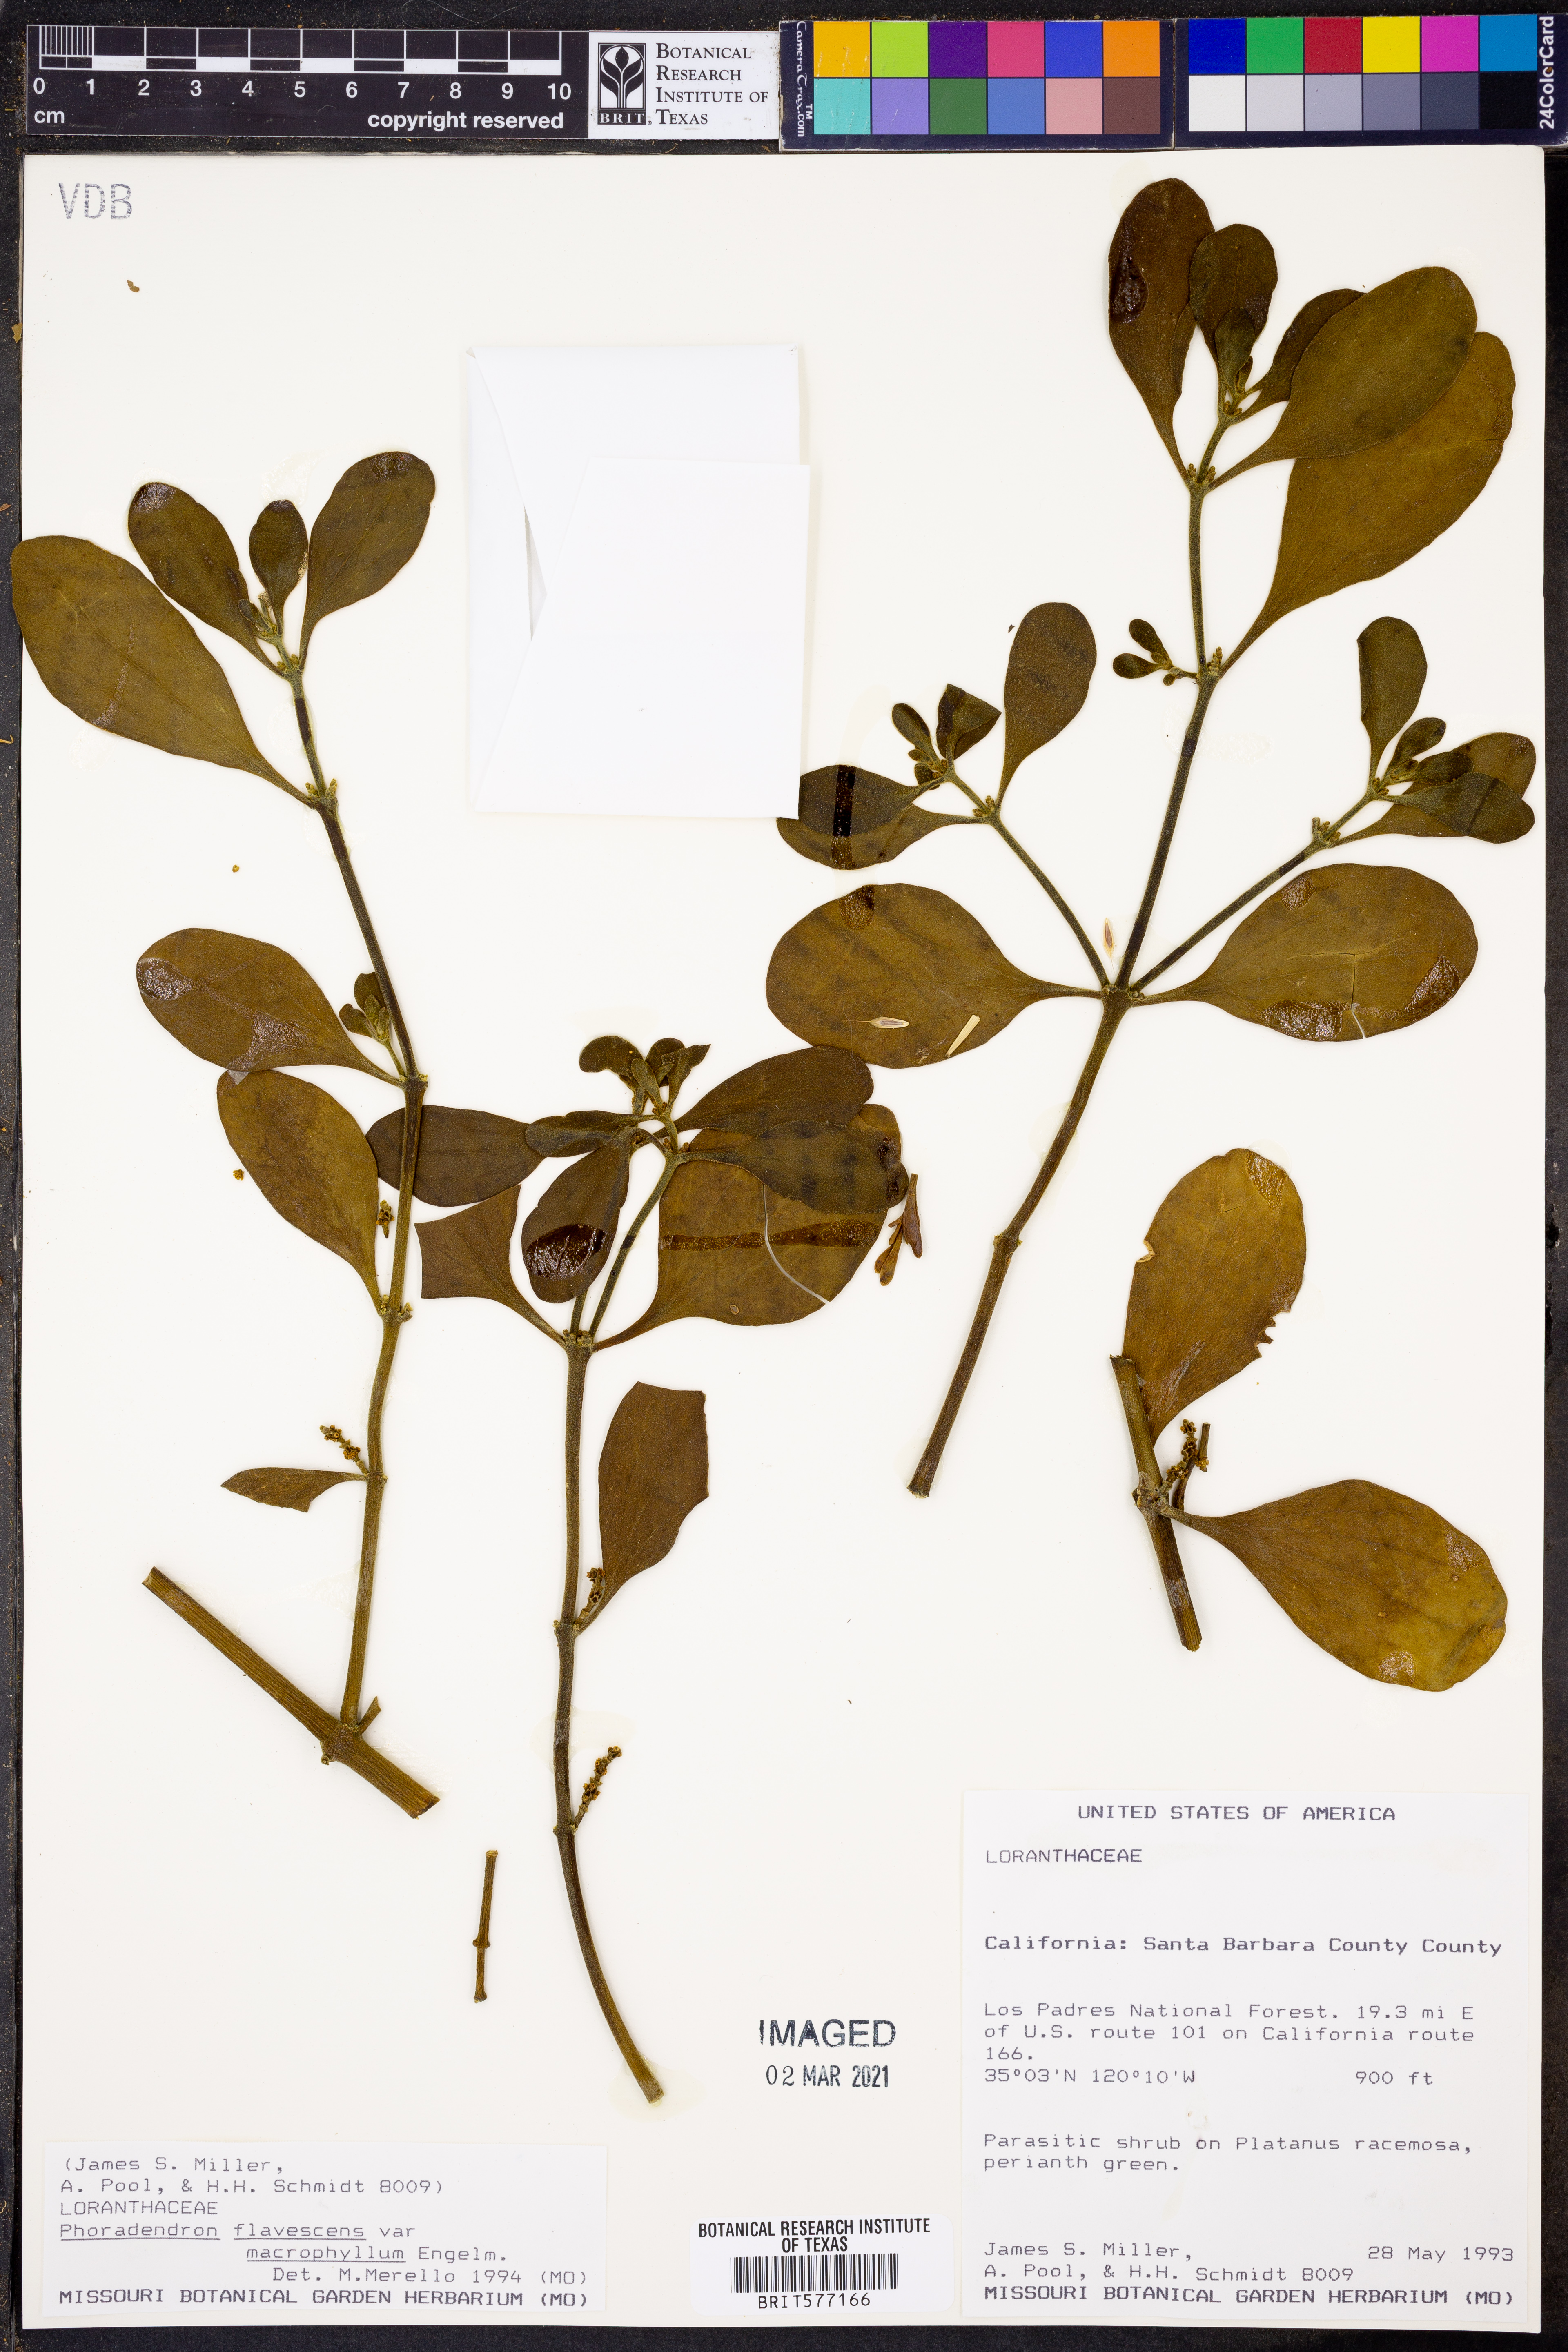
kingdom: Plantae
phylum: Tracheophyta
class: Magnoliopsida
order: Santalales
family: Viscaceae
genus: Phoradendron
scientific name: Phoradendron leucarpum
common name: Pacific mistletoe
